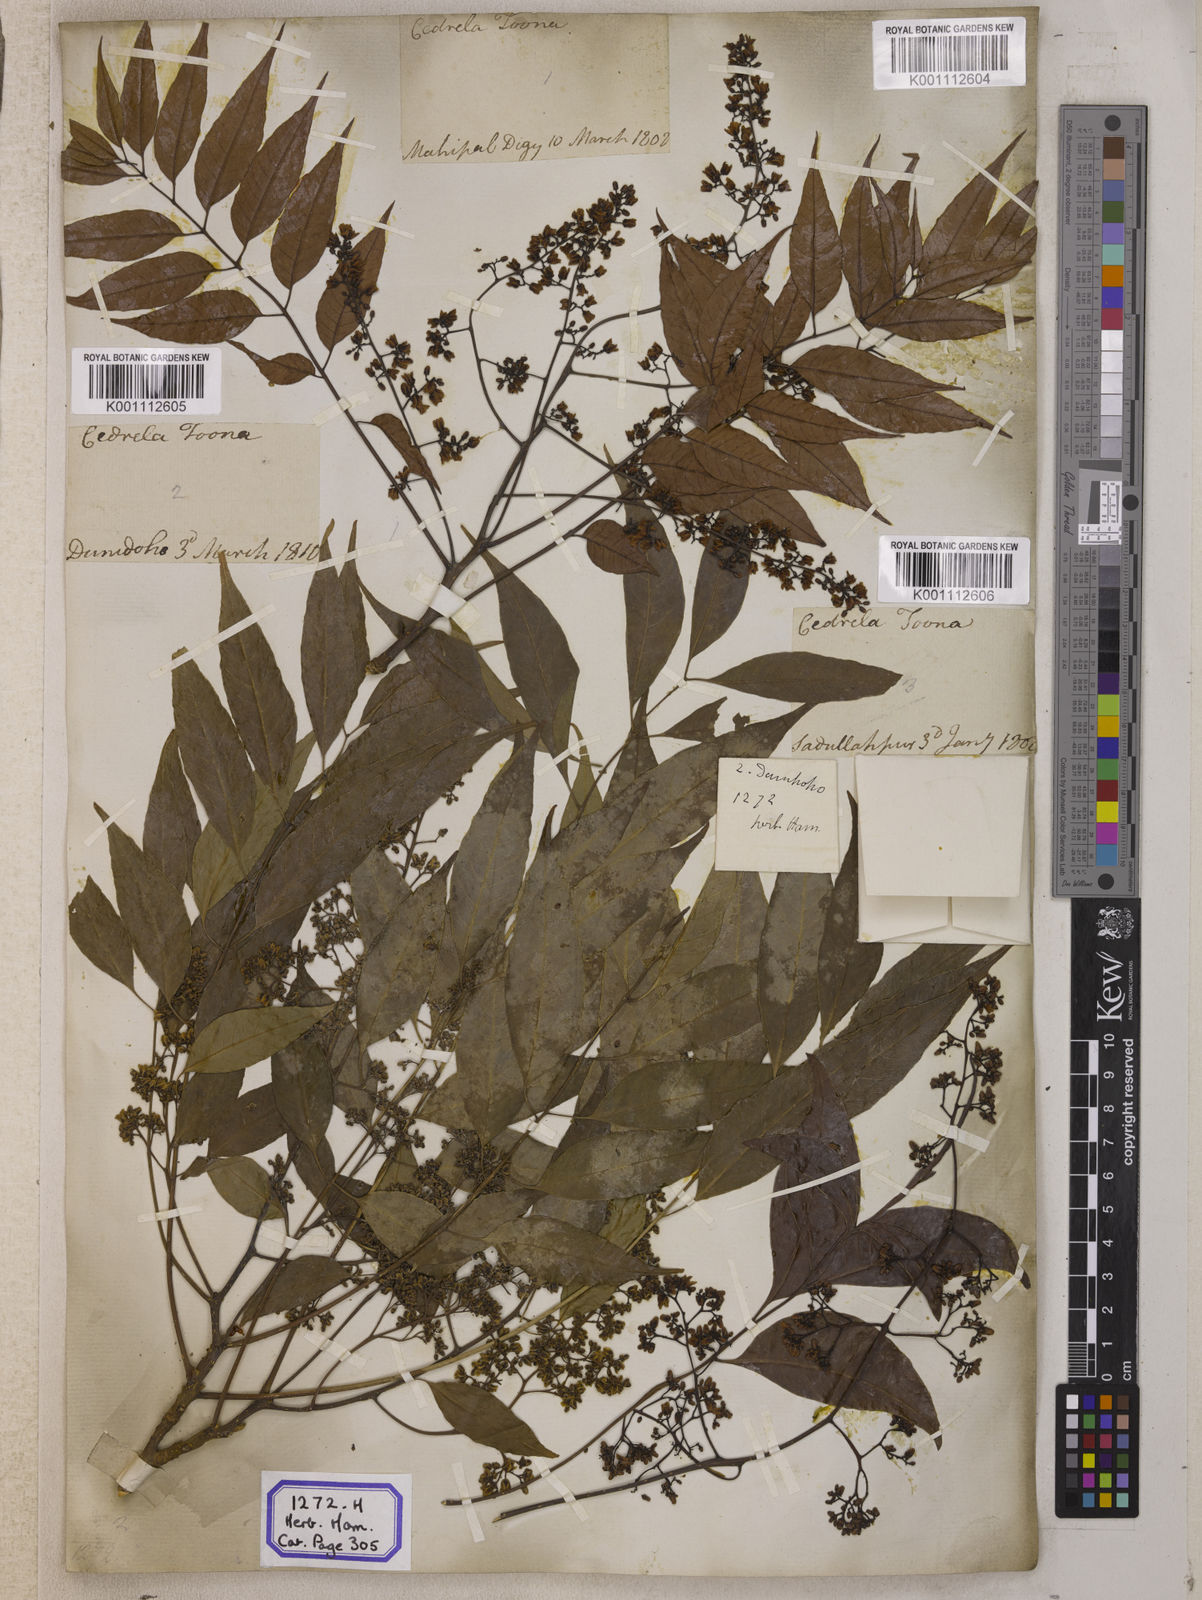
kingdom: Plantae
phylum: Tracheophyta
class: Magnoliopsida
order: Sapindales
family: Meliaceae
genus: Cedrela
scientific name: Cedrela
